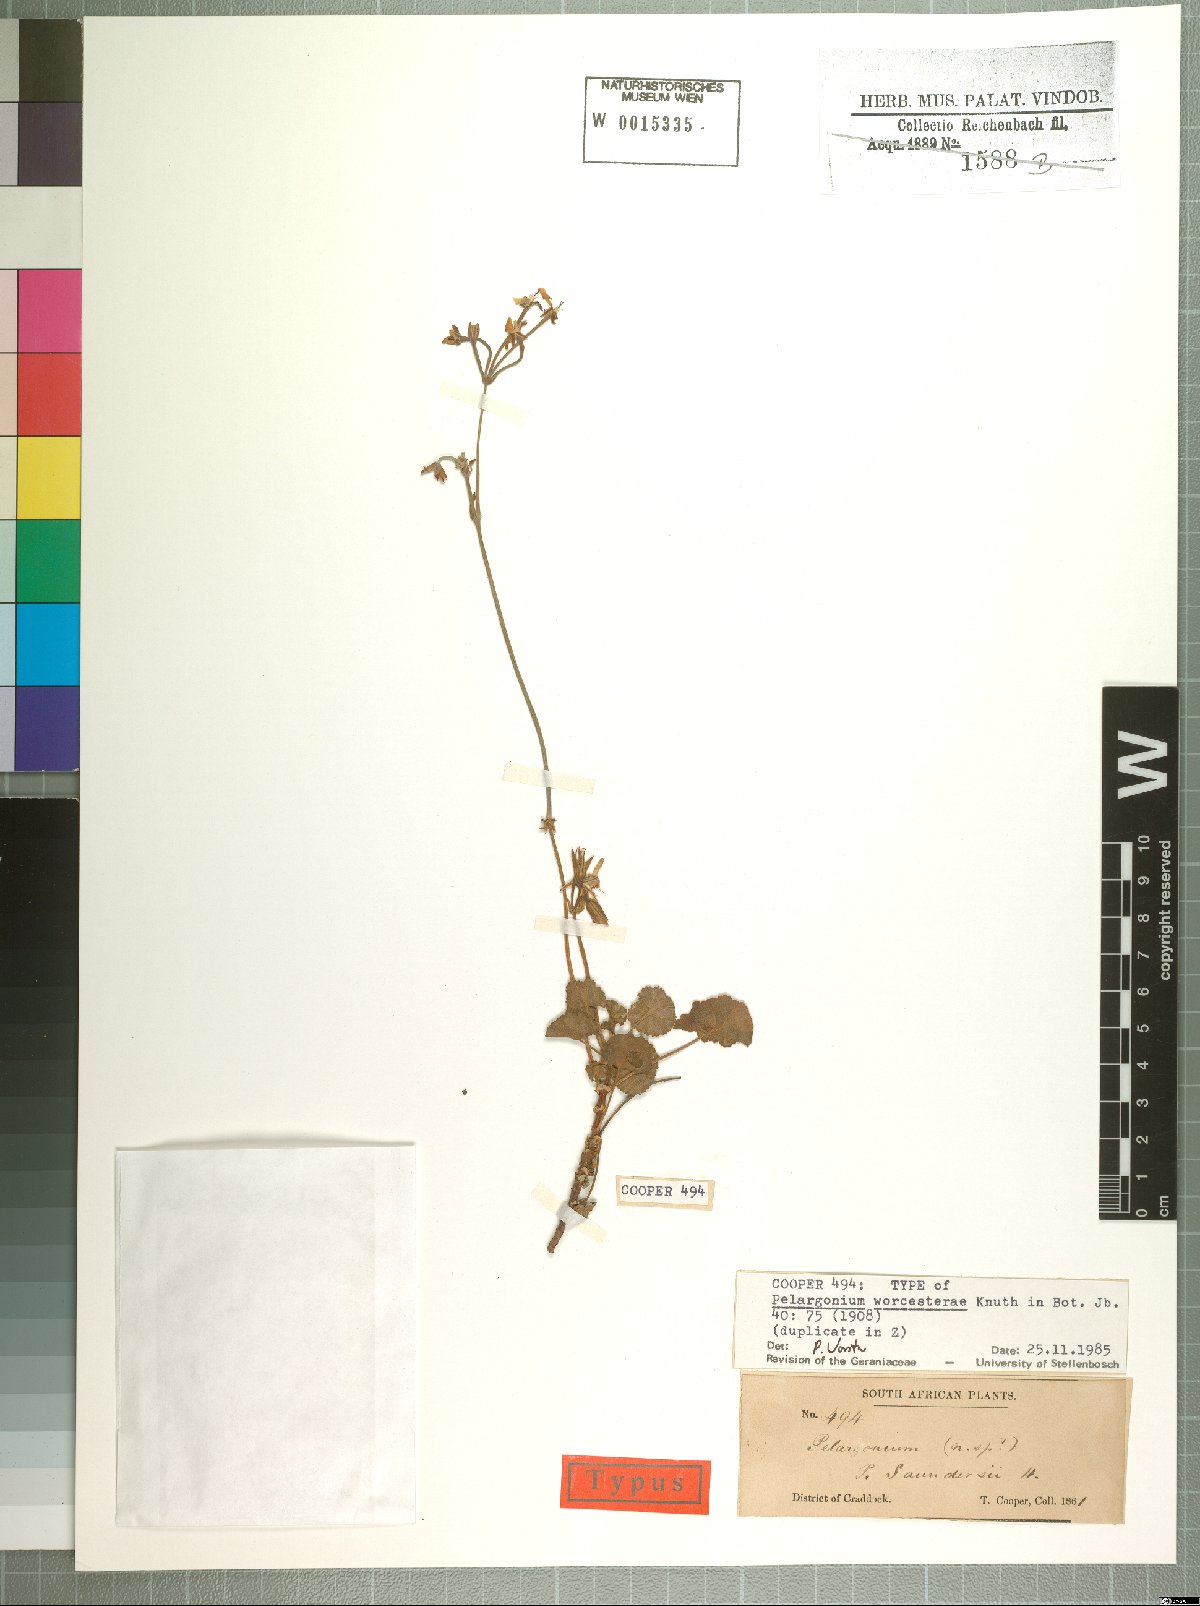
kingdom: Plantae
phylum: Tracheophyta
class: Magnoliopsida
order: Geraniales
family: Geraniaceae
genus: Pelargonium
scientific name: Pelargonium worcesterae
